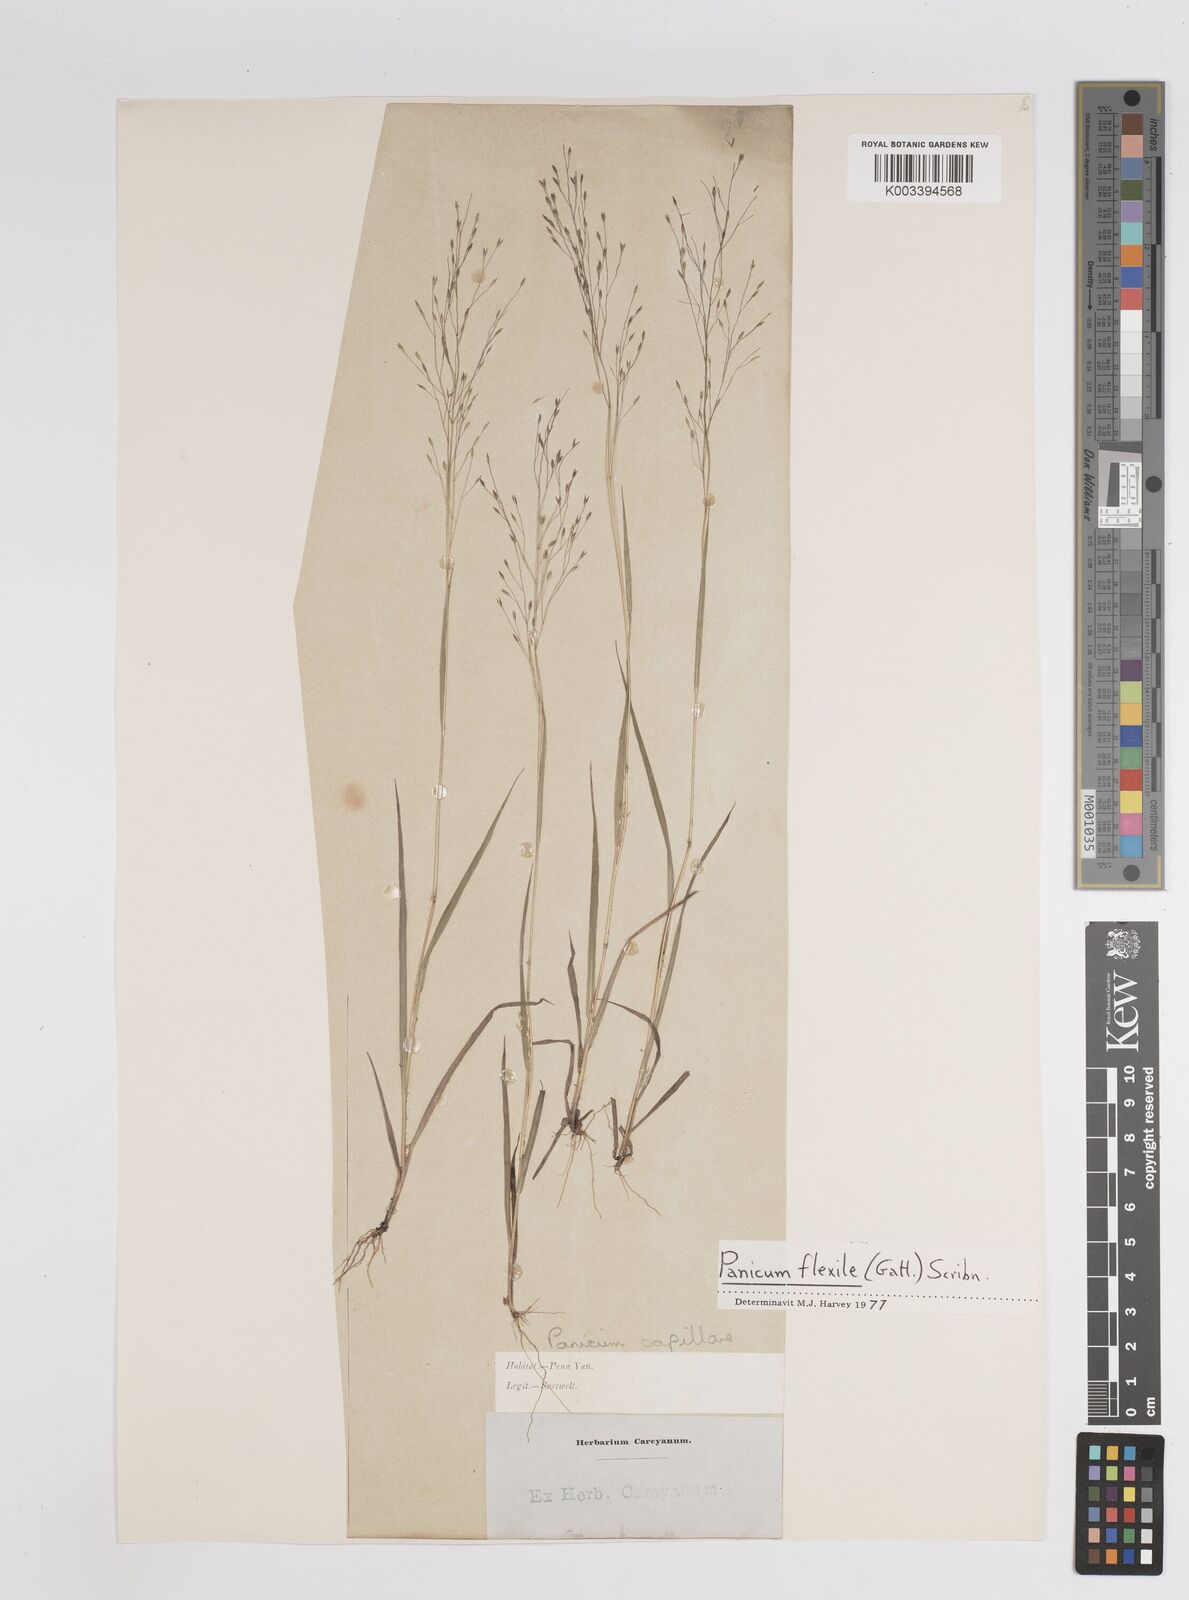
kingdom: Plantae
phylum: Tracheophyta
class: Liliopsida
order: Poales
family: Poaceae
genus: Panicum
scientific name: Panicum flexile
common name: Wiry panicgrass
